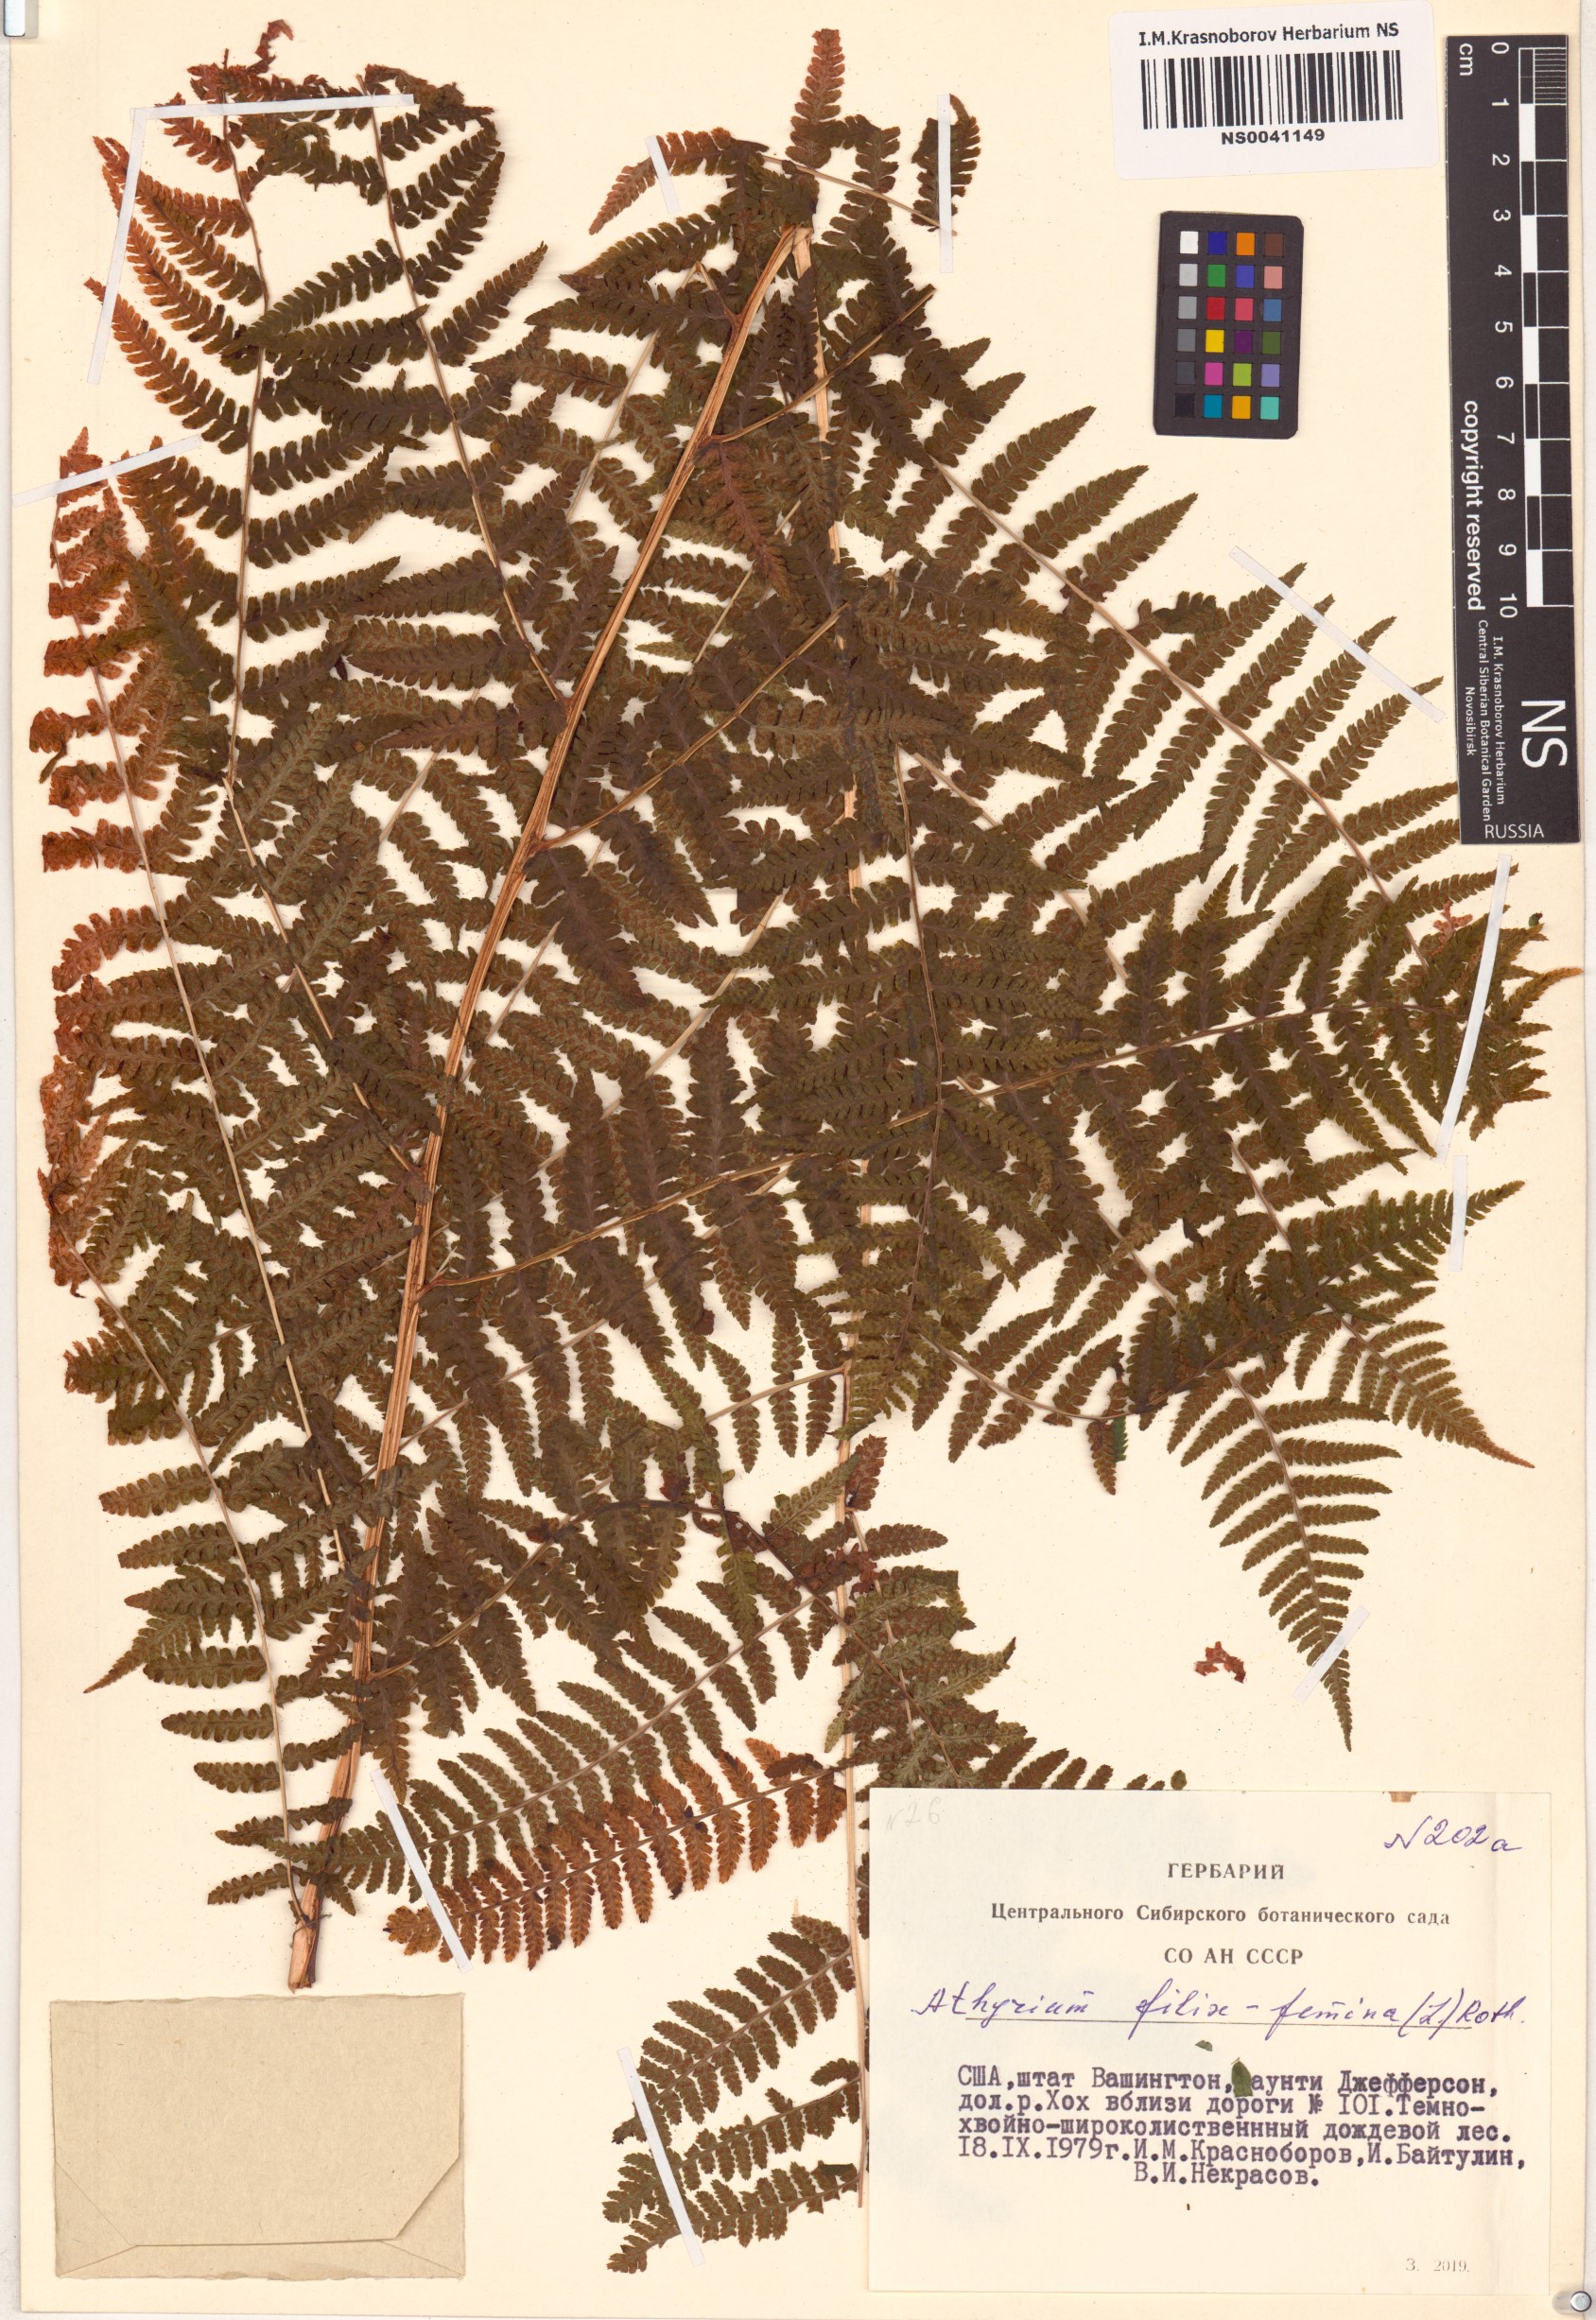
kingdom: Plantae
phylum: Tracheophyta
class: Polypodiopsida
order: Polypodiales
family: Athyriaceae
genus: Athyrium
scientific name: Athyrium filix-femina
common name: Lady fern
